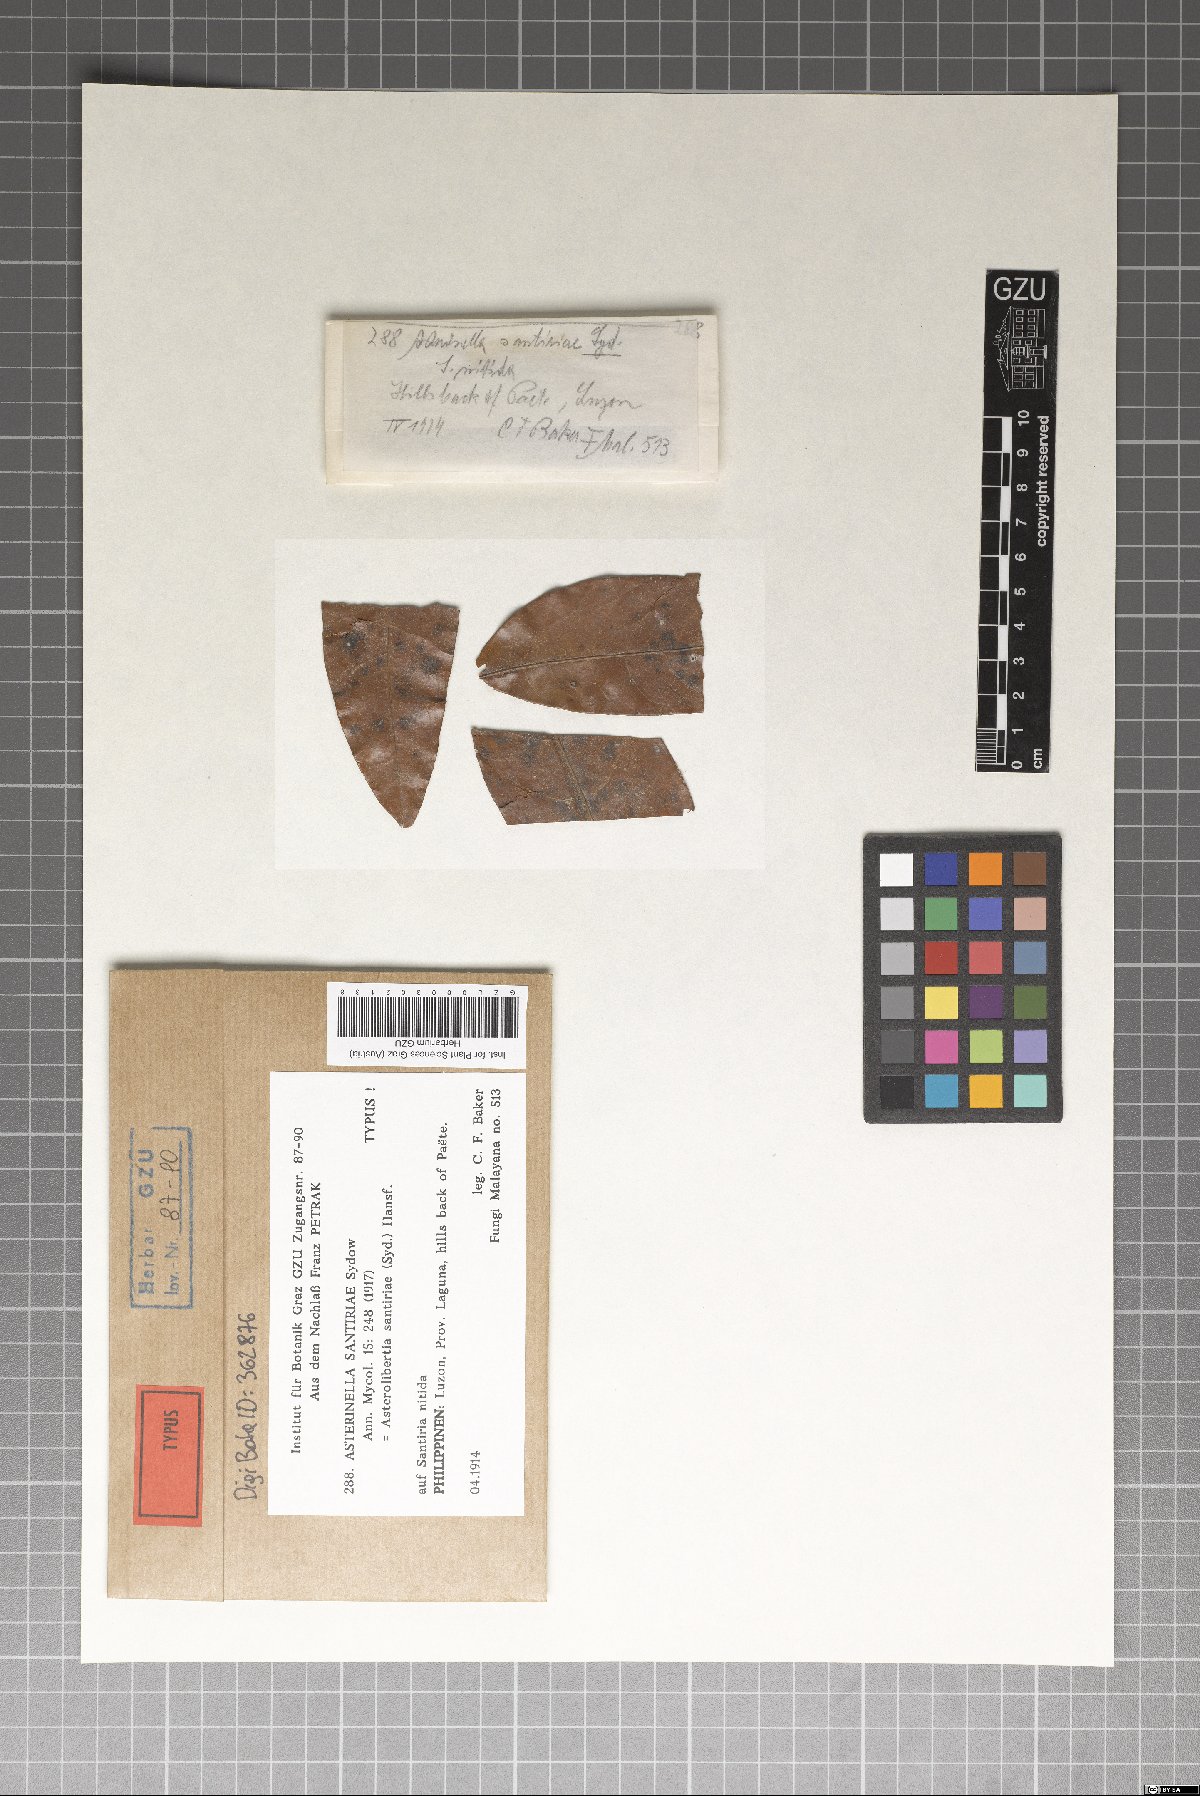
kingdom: Fungi
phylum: Ascomycota
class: Dothideomycetes
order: Asterinales
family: Asterinaceae
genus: Asterolibertia
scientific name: Asterolibertia santiriae
